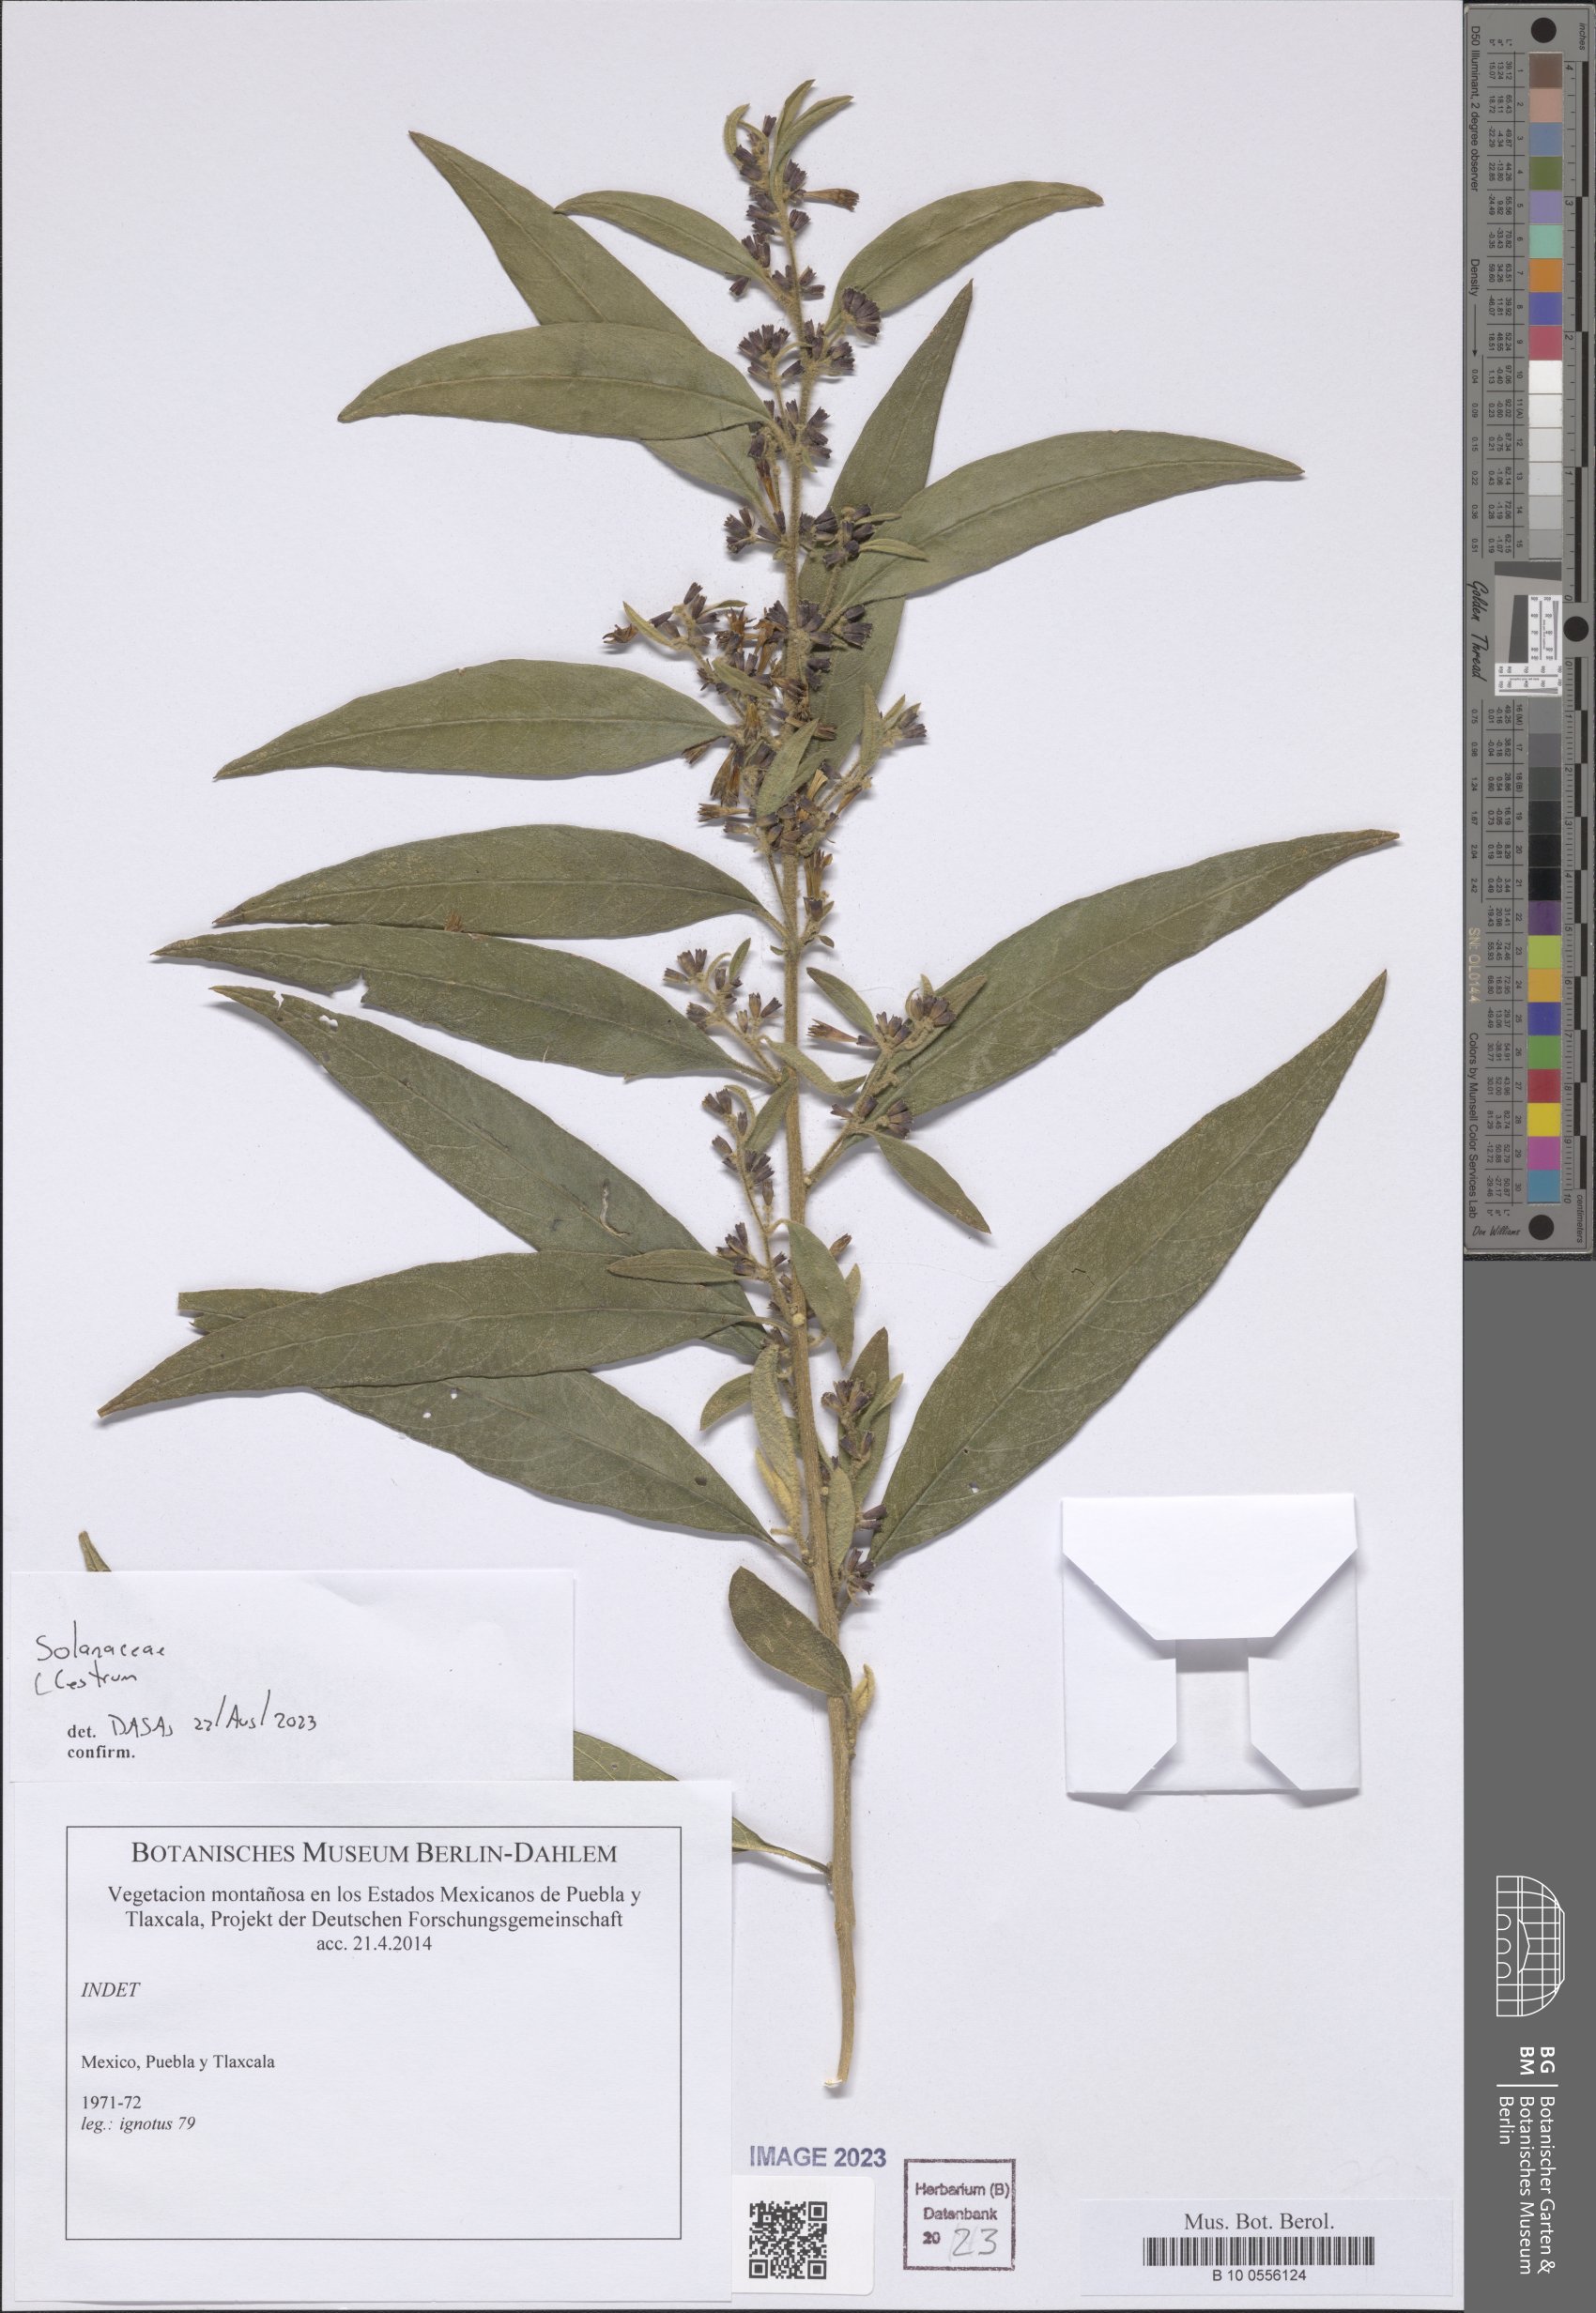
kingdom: Plantae
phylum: Tracheophyta
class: Magnoliopsida
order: Solanales
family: Solanaceae
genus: Cestrum
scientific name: Cestrum
